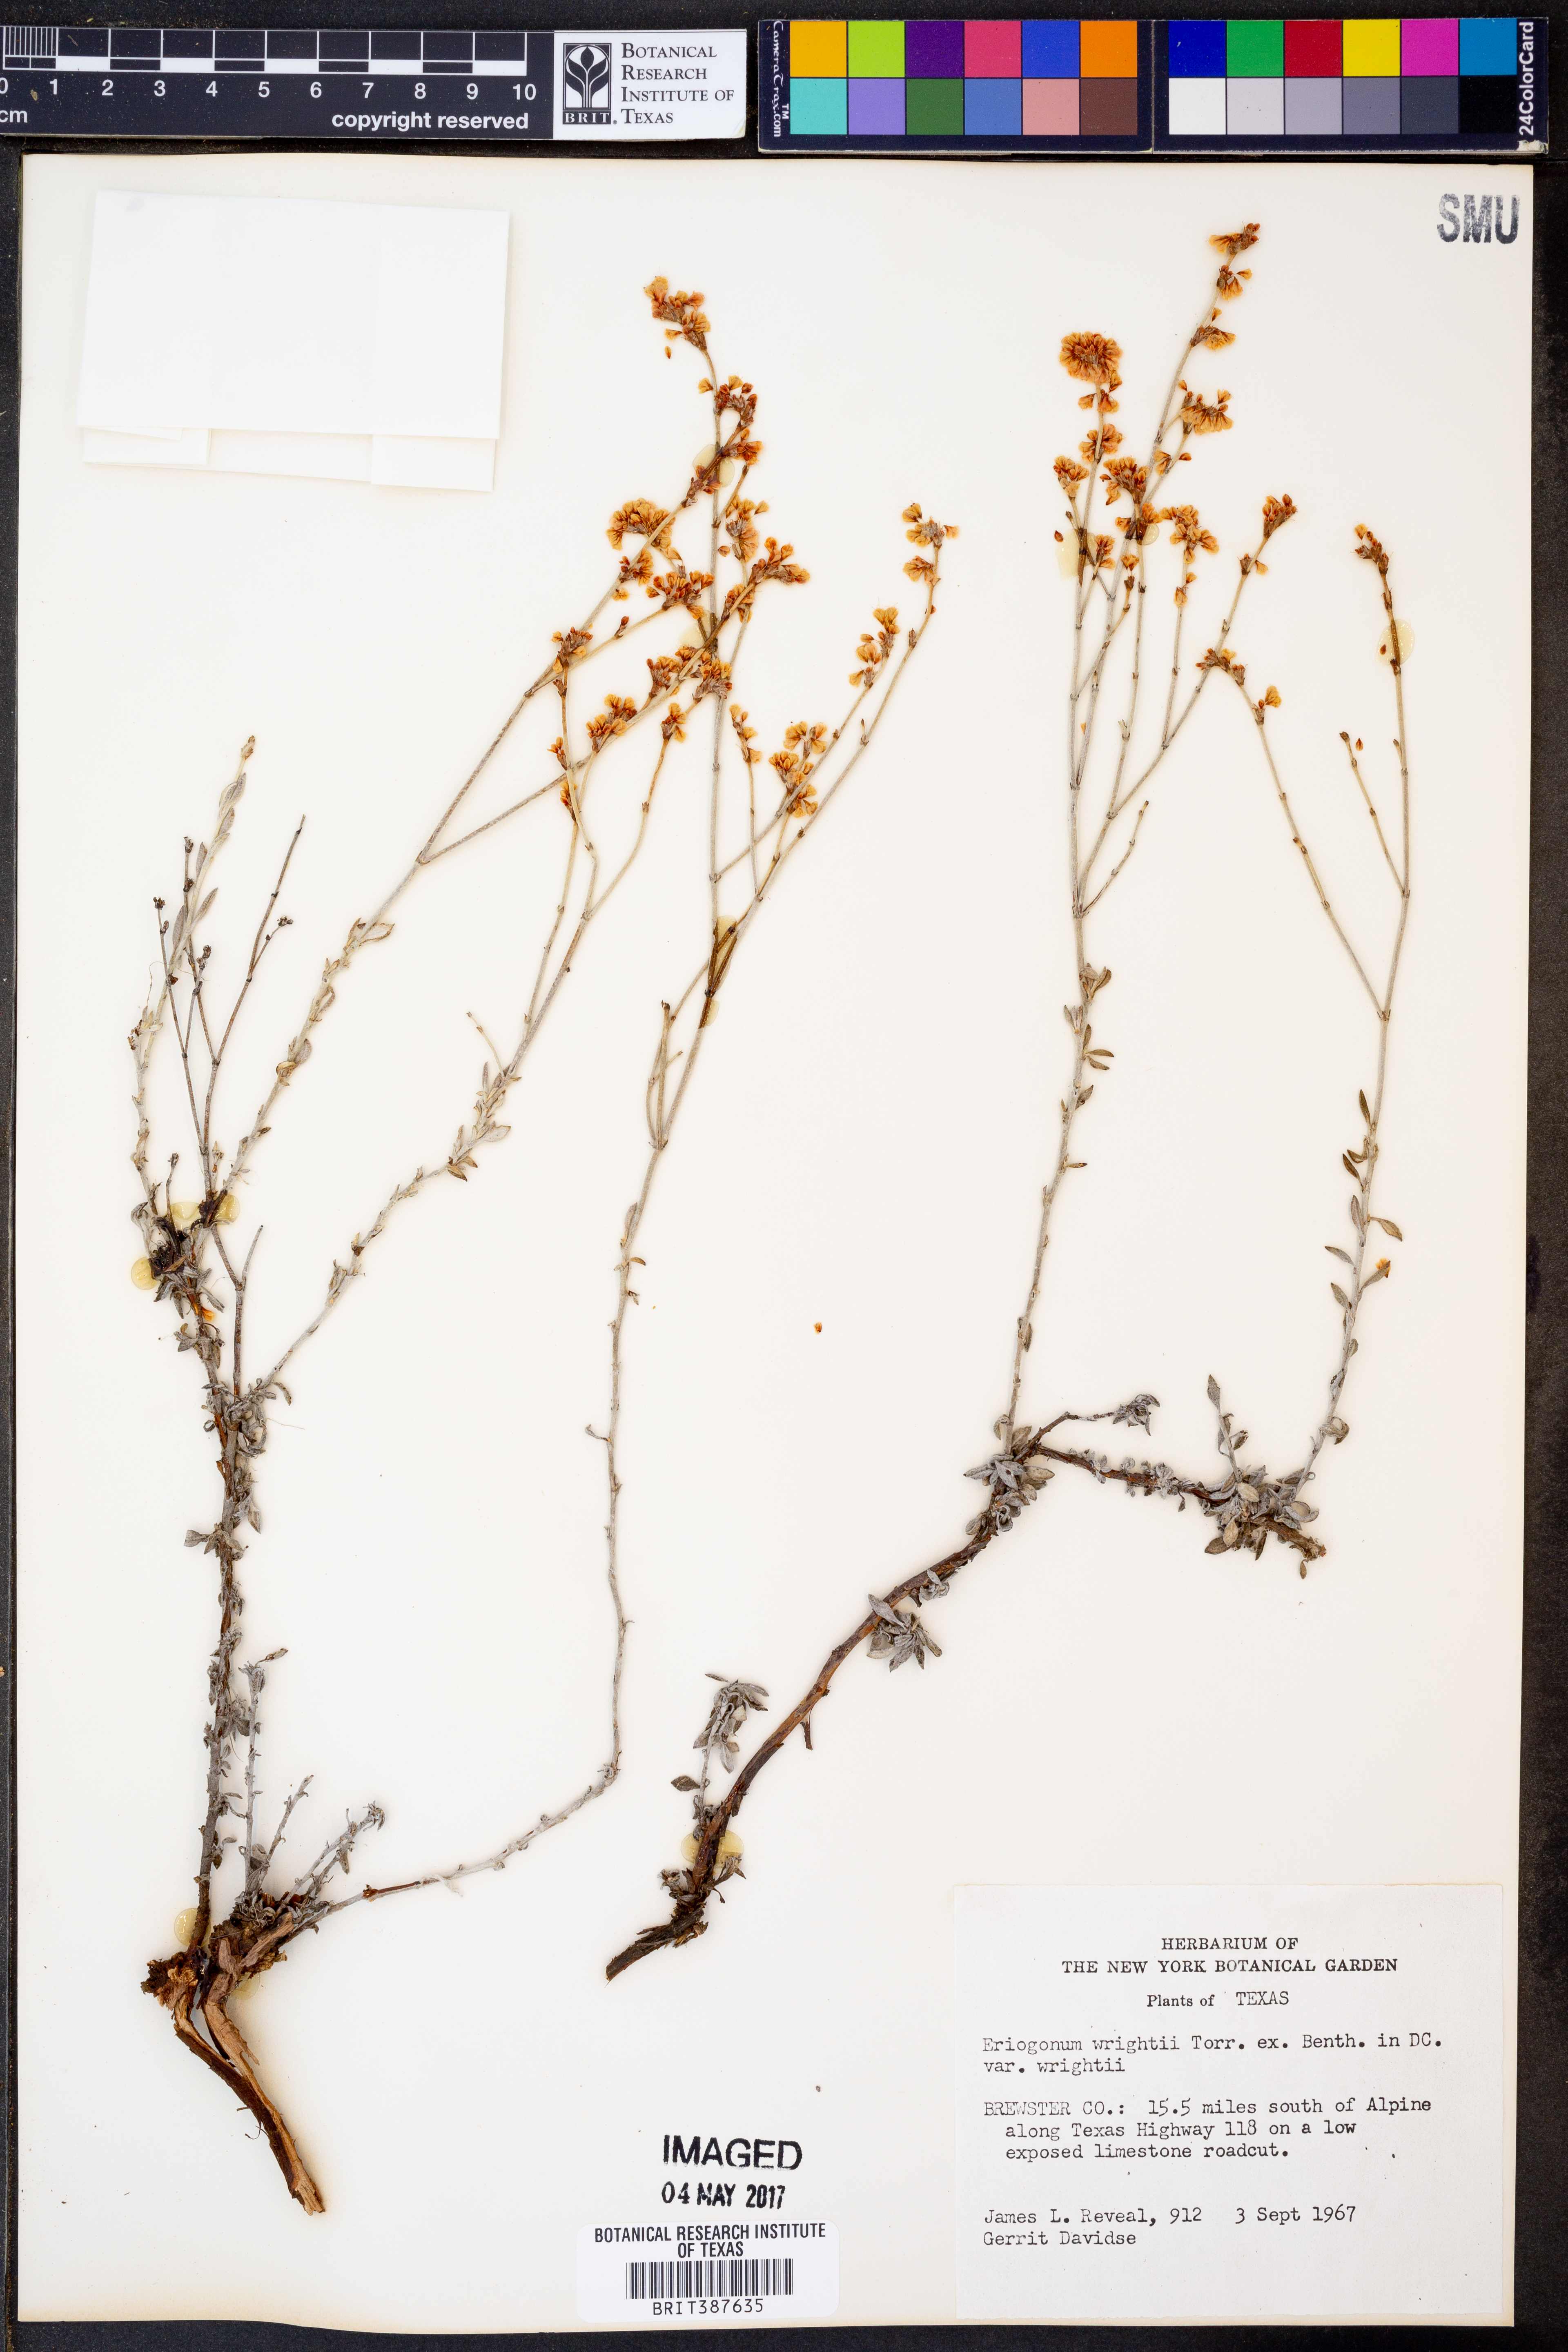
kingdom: Plantae
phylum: Tracheophyta
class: Magnoliopsida
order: Caryophyllales
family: Polygonaceae
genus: Eriogonum
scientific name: Eriogonum wrightii
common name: Bastard-sage
